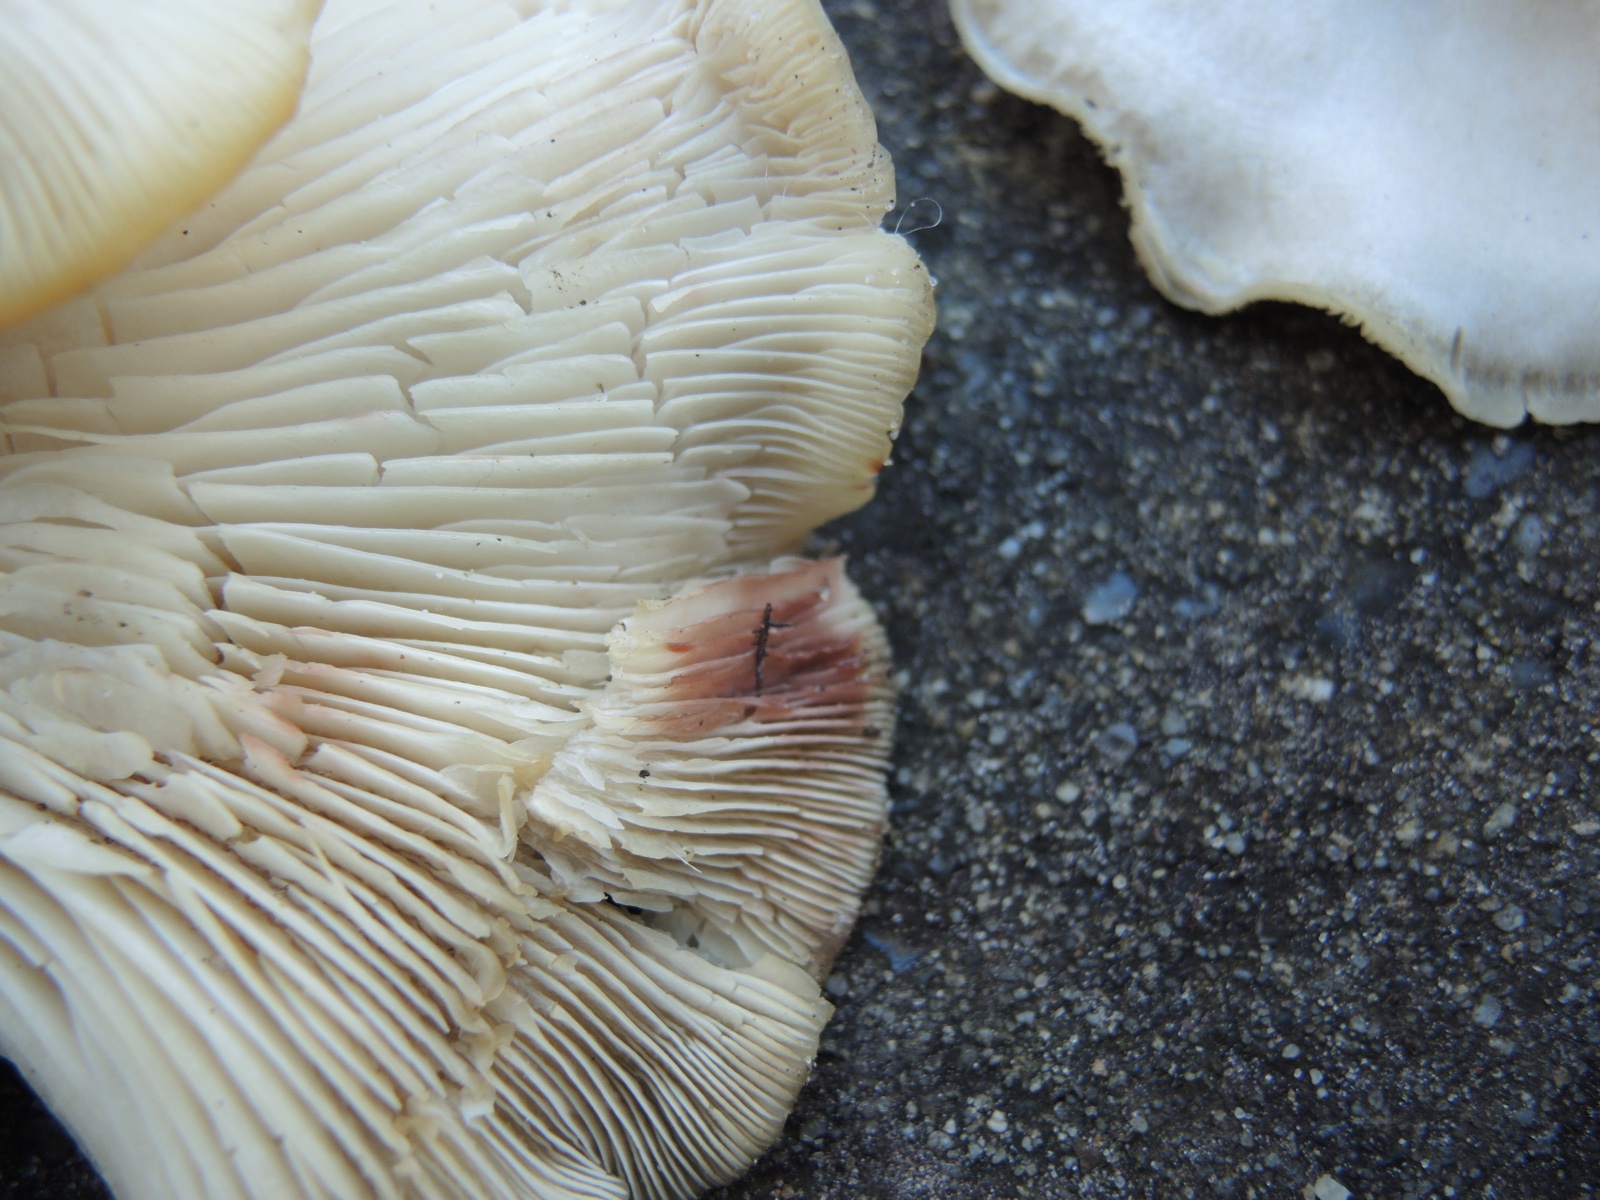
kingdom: Fungi
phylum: Basidiomycota
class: Agaricomycetes
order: Agaricales
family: Tricholomataceae
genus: Leucocybe
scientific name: Leucocybe connata
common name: knippe-tragthat
